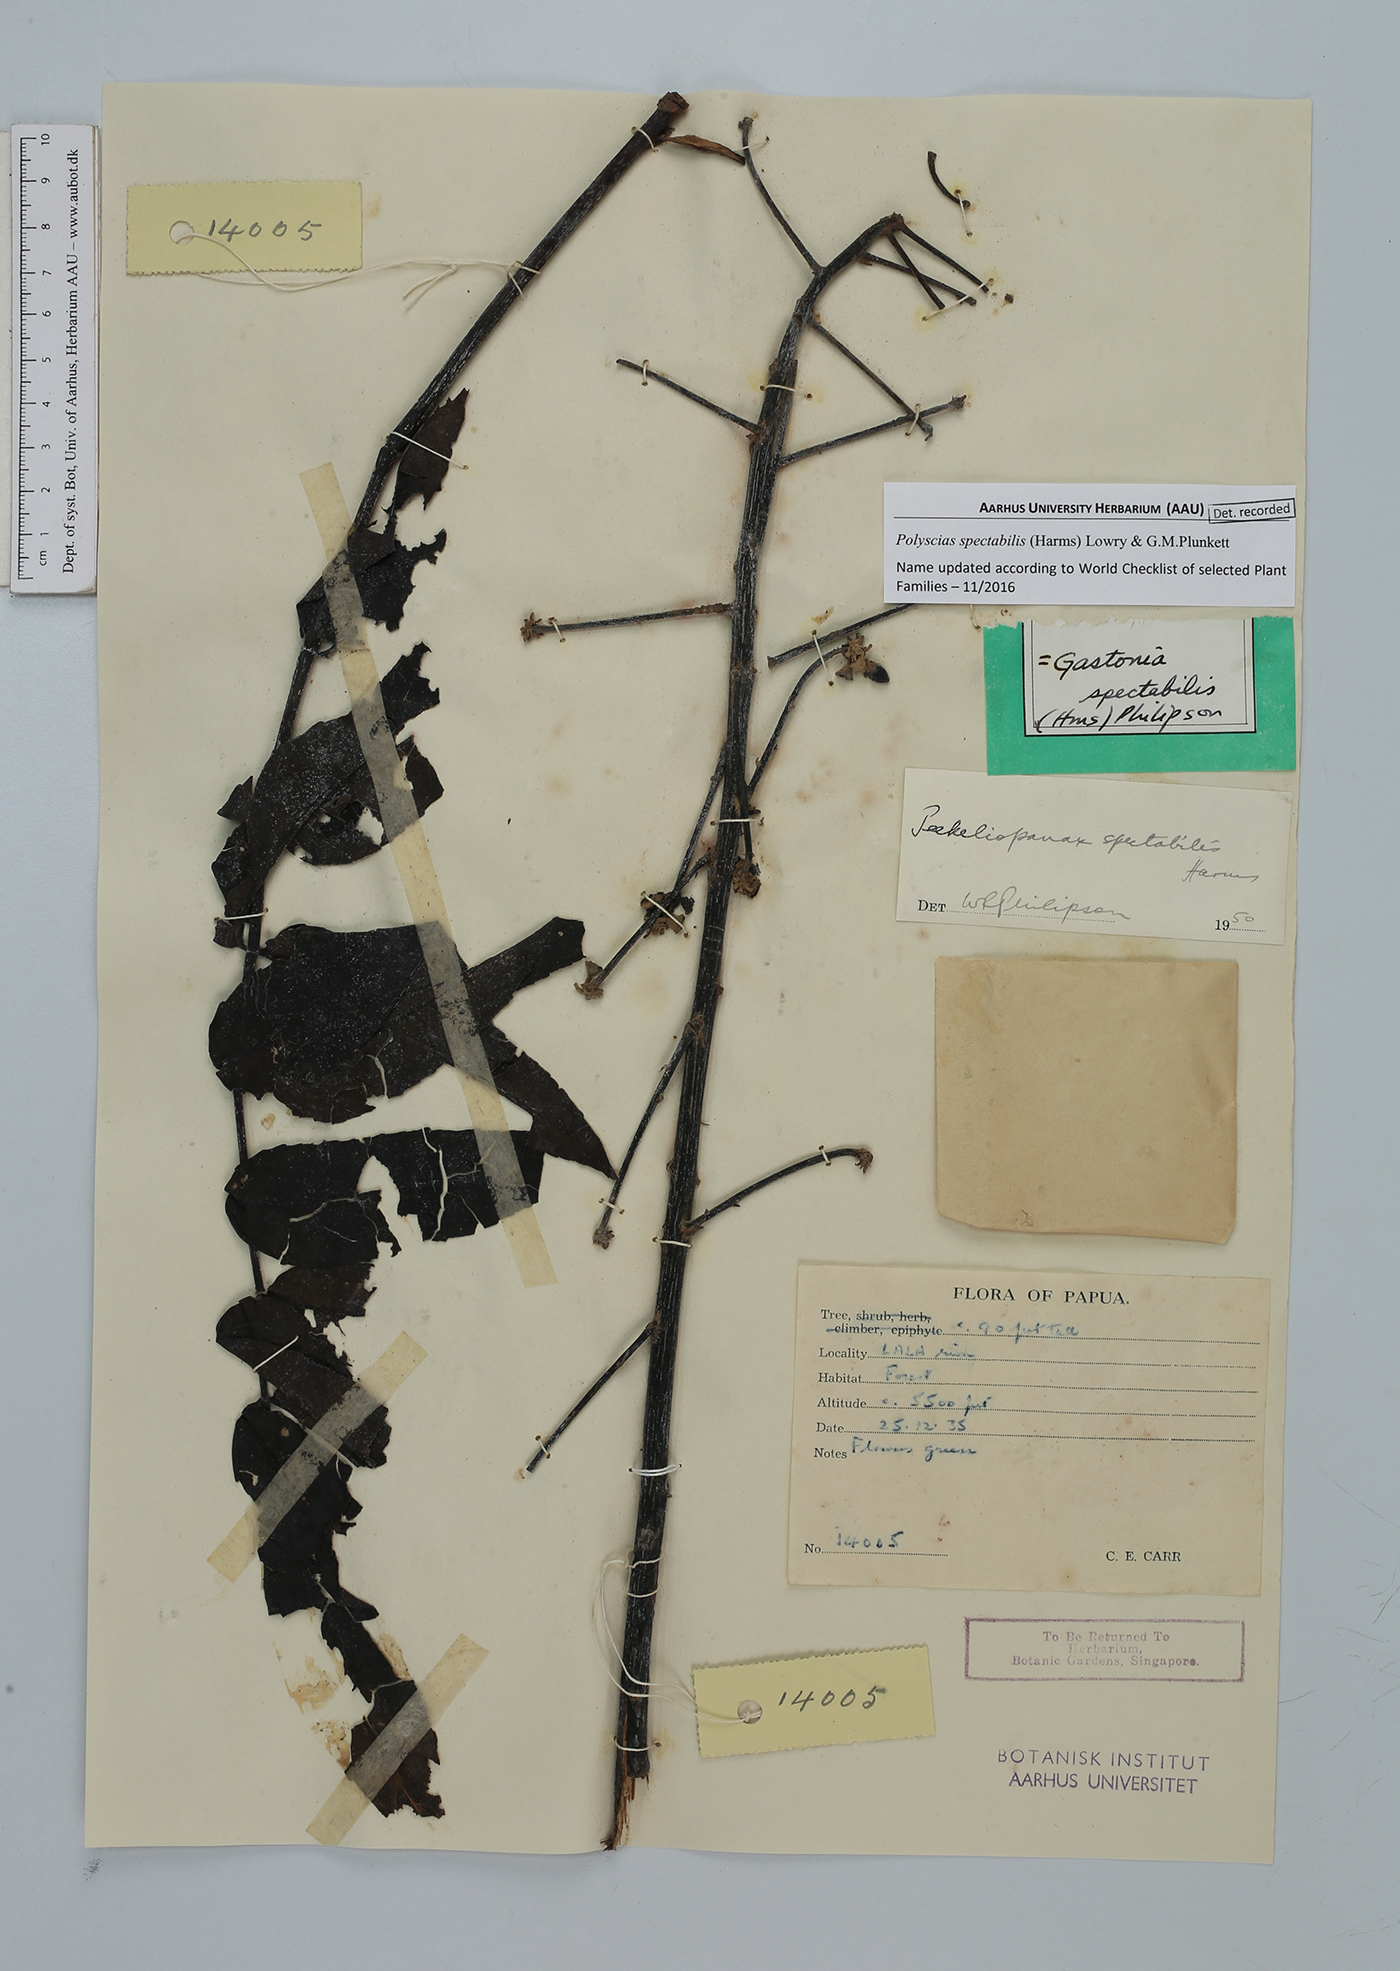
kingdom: Plantae
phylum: Tracheophyta
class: Magnoliopsida
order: Apiales
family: Araliaceae
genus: Polyscias
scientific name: Polyscias spectabilis
